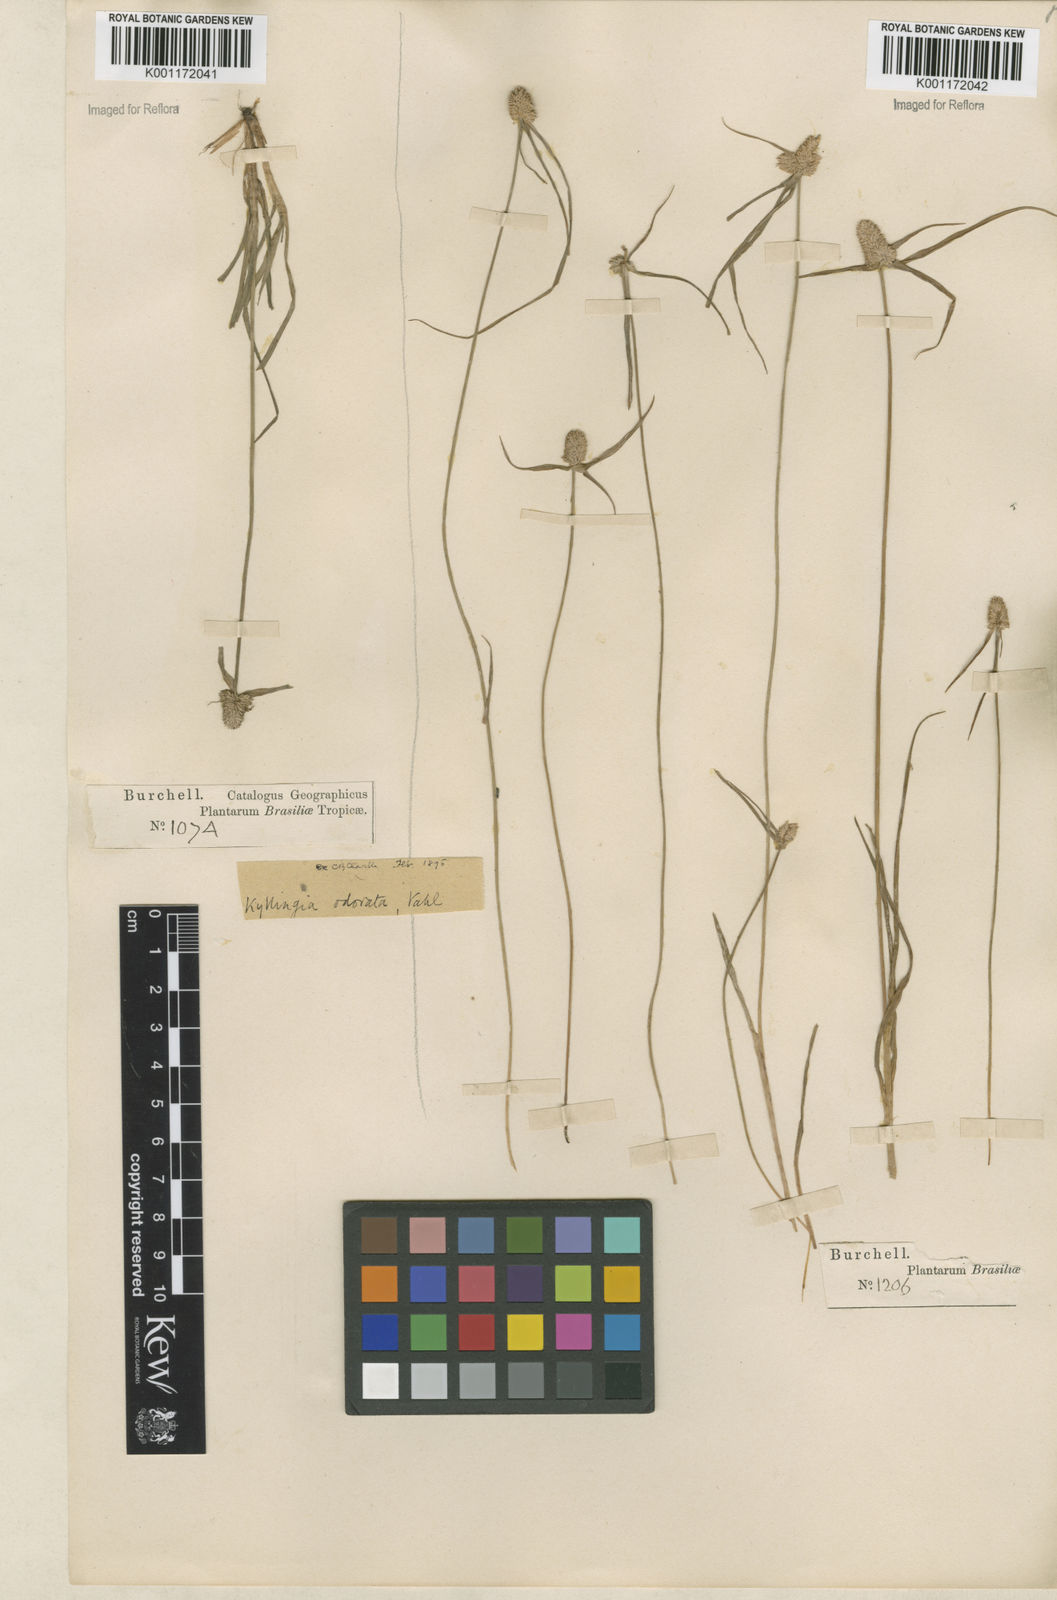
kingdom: Plantae
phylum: Tracheophyta
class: Liliopsida
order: Poales
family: Cyperaceae
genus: Cyperus
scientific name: Cyperus
